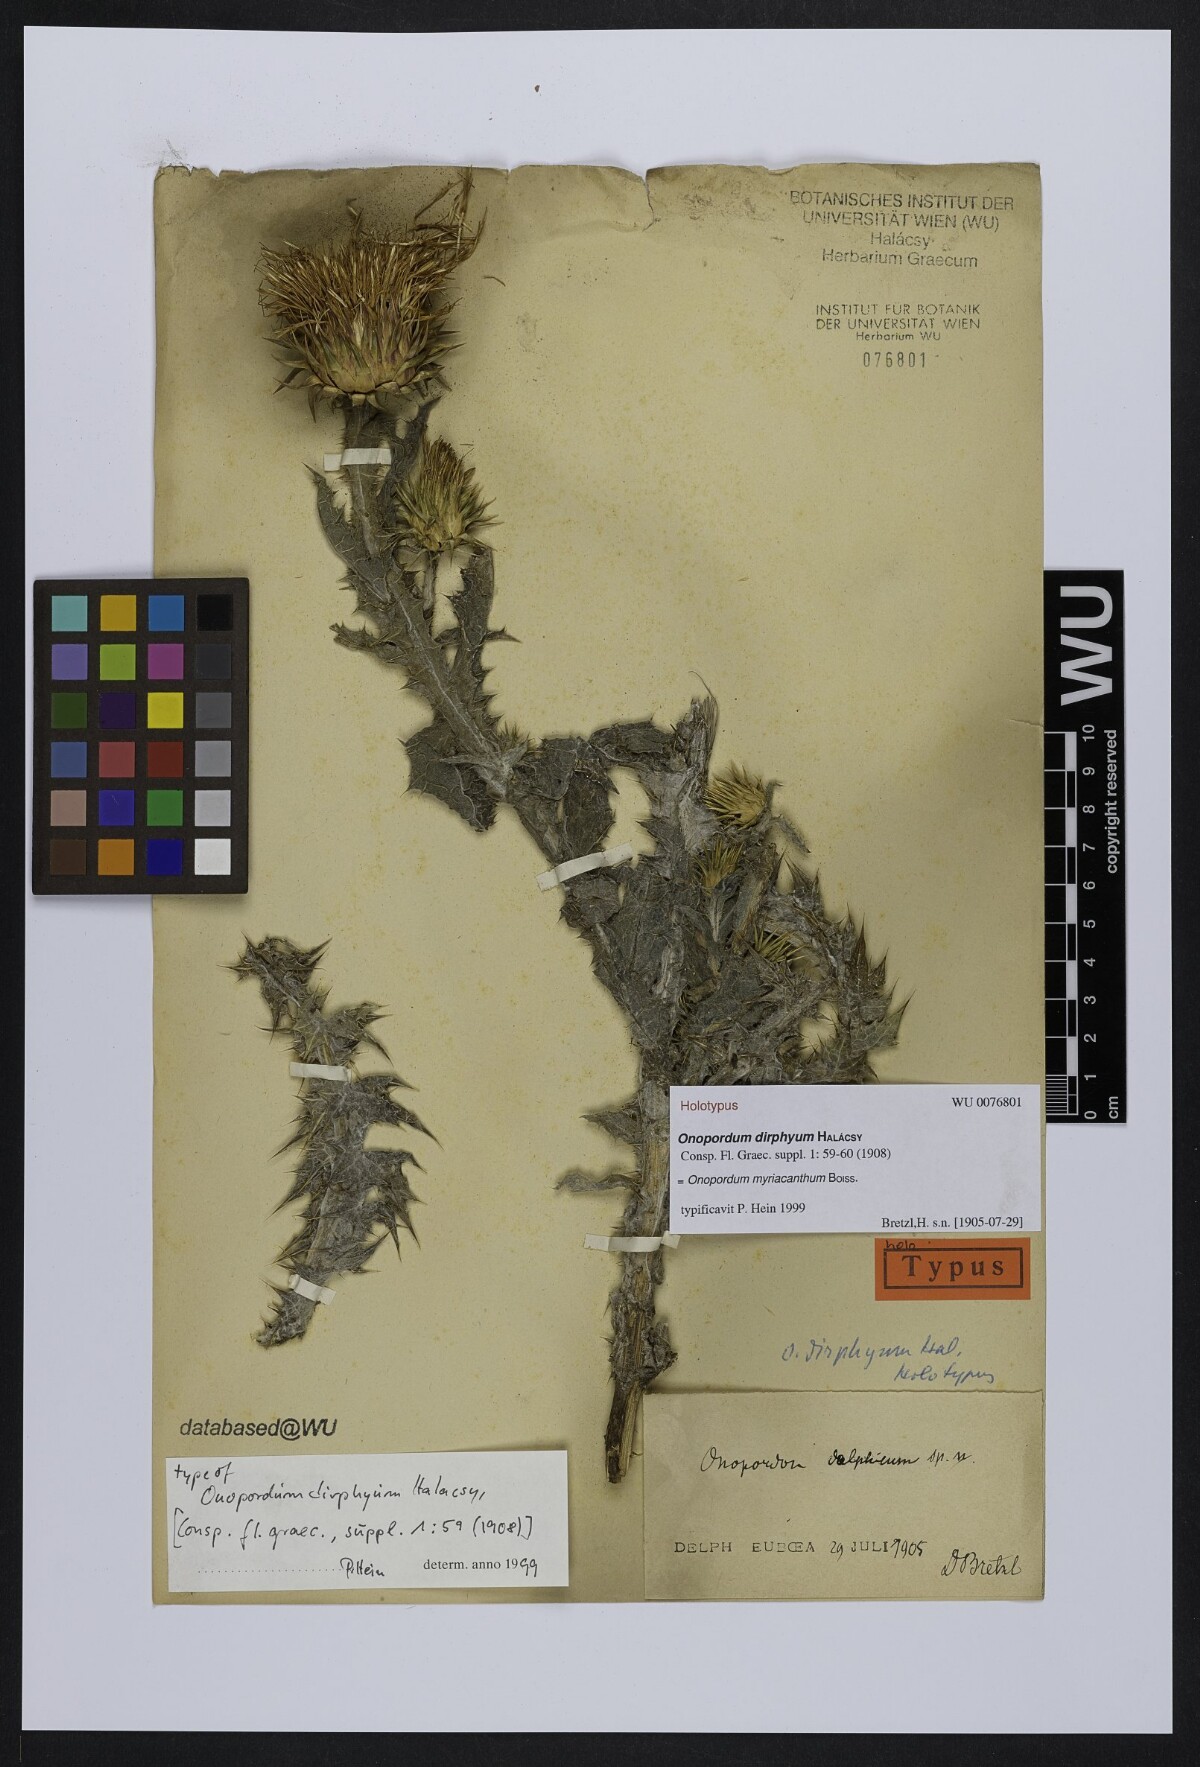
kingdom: Plantae
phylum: Tracheophyta
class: Magnoliopsida
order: Asterales
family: Asteraceae
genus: Onopordum
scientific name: Onopordum myriacanthum
